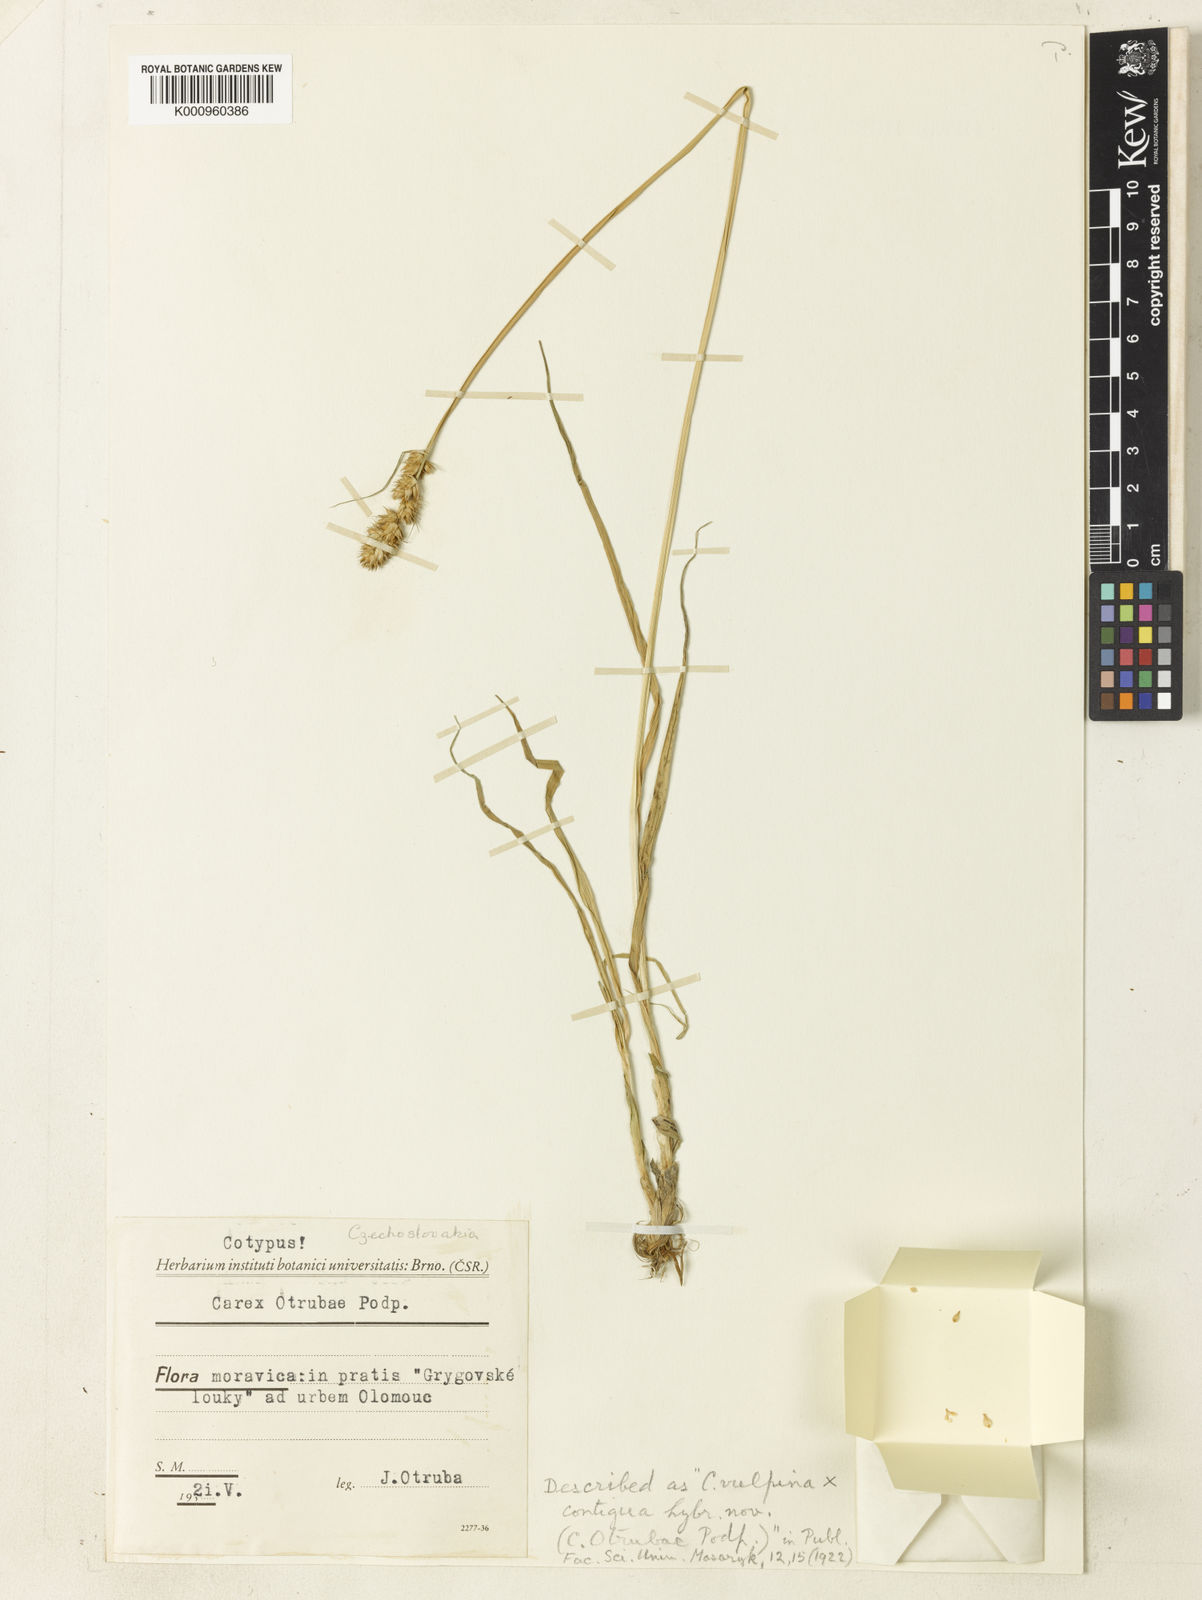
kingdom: Plantae
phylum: Tracheophyta
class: Liliopsida
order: Poales
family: Cyperaceae
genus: Carex
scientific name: Carex otrubae
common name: False fox-sedge
